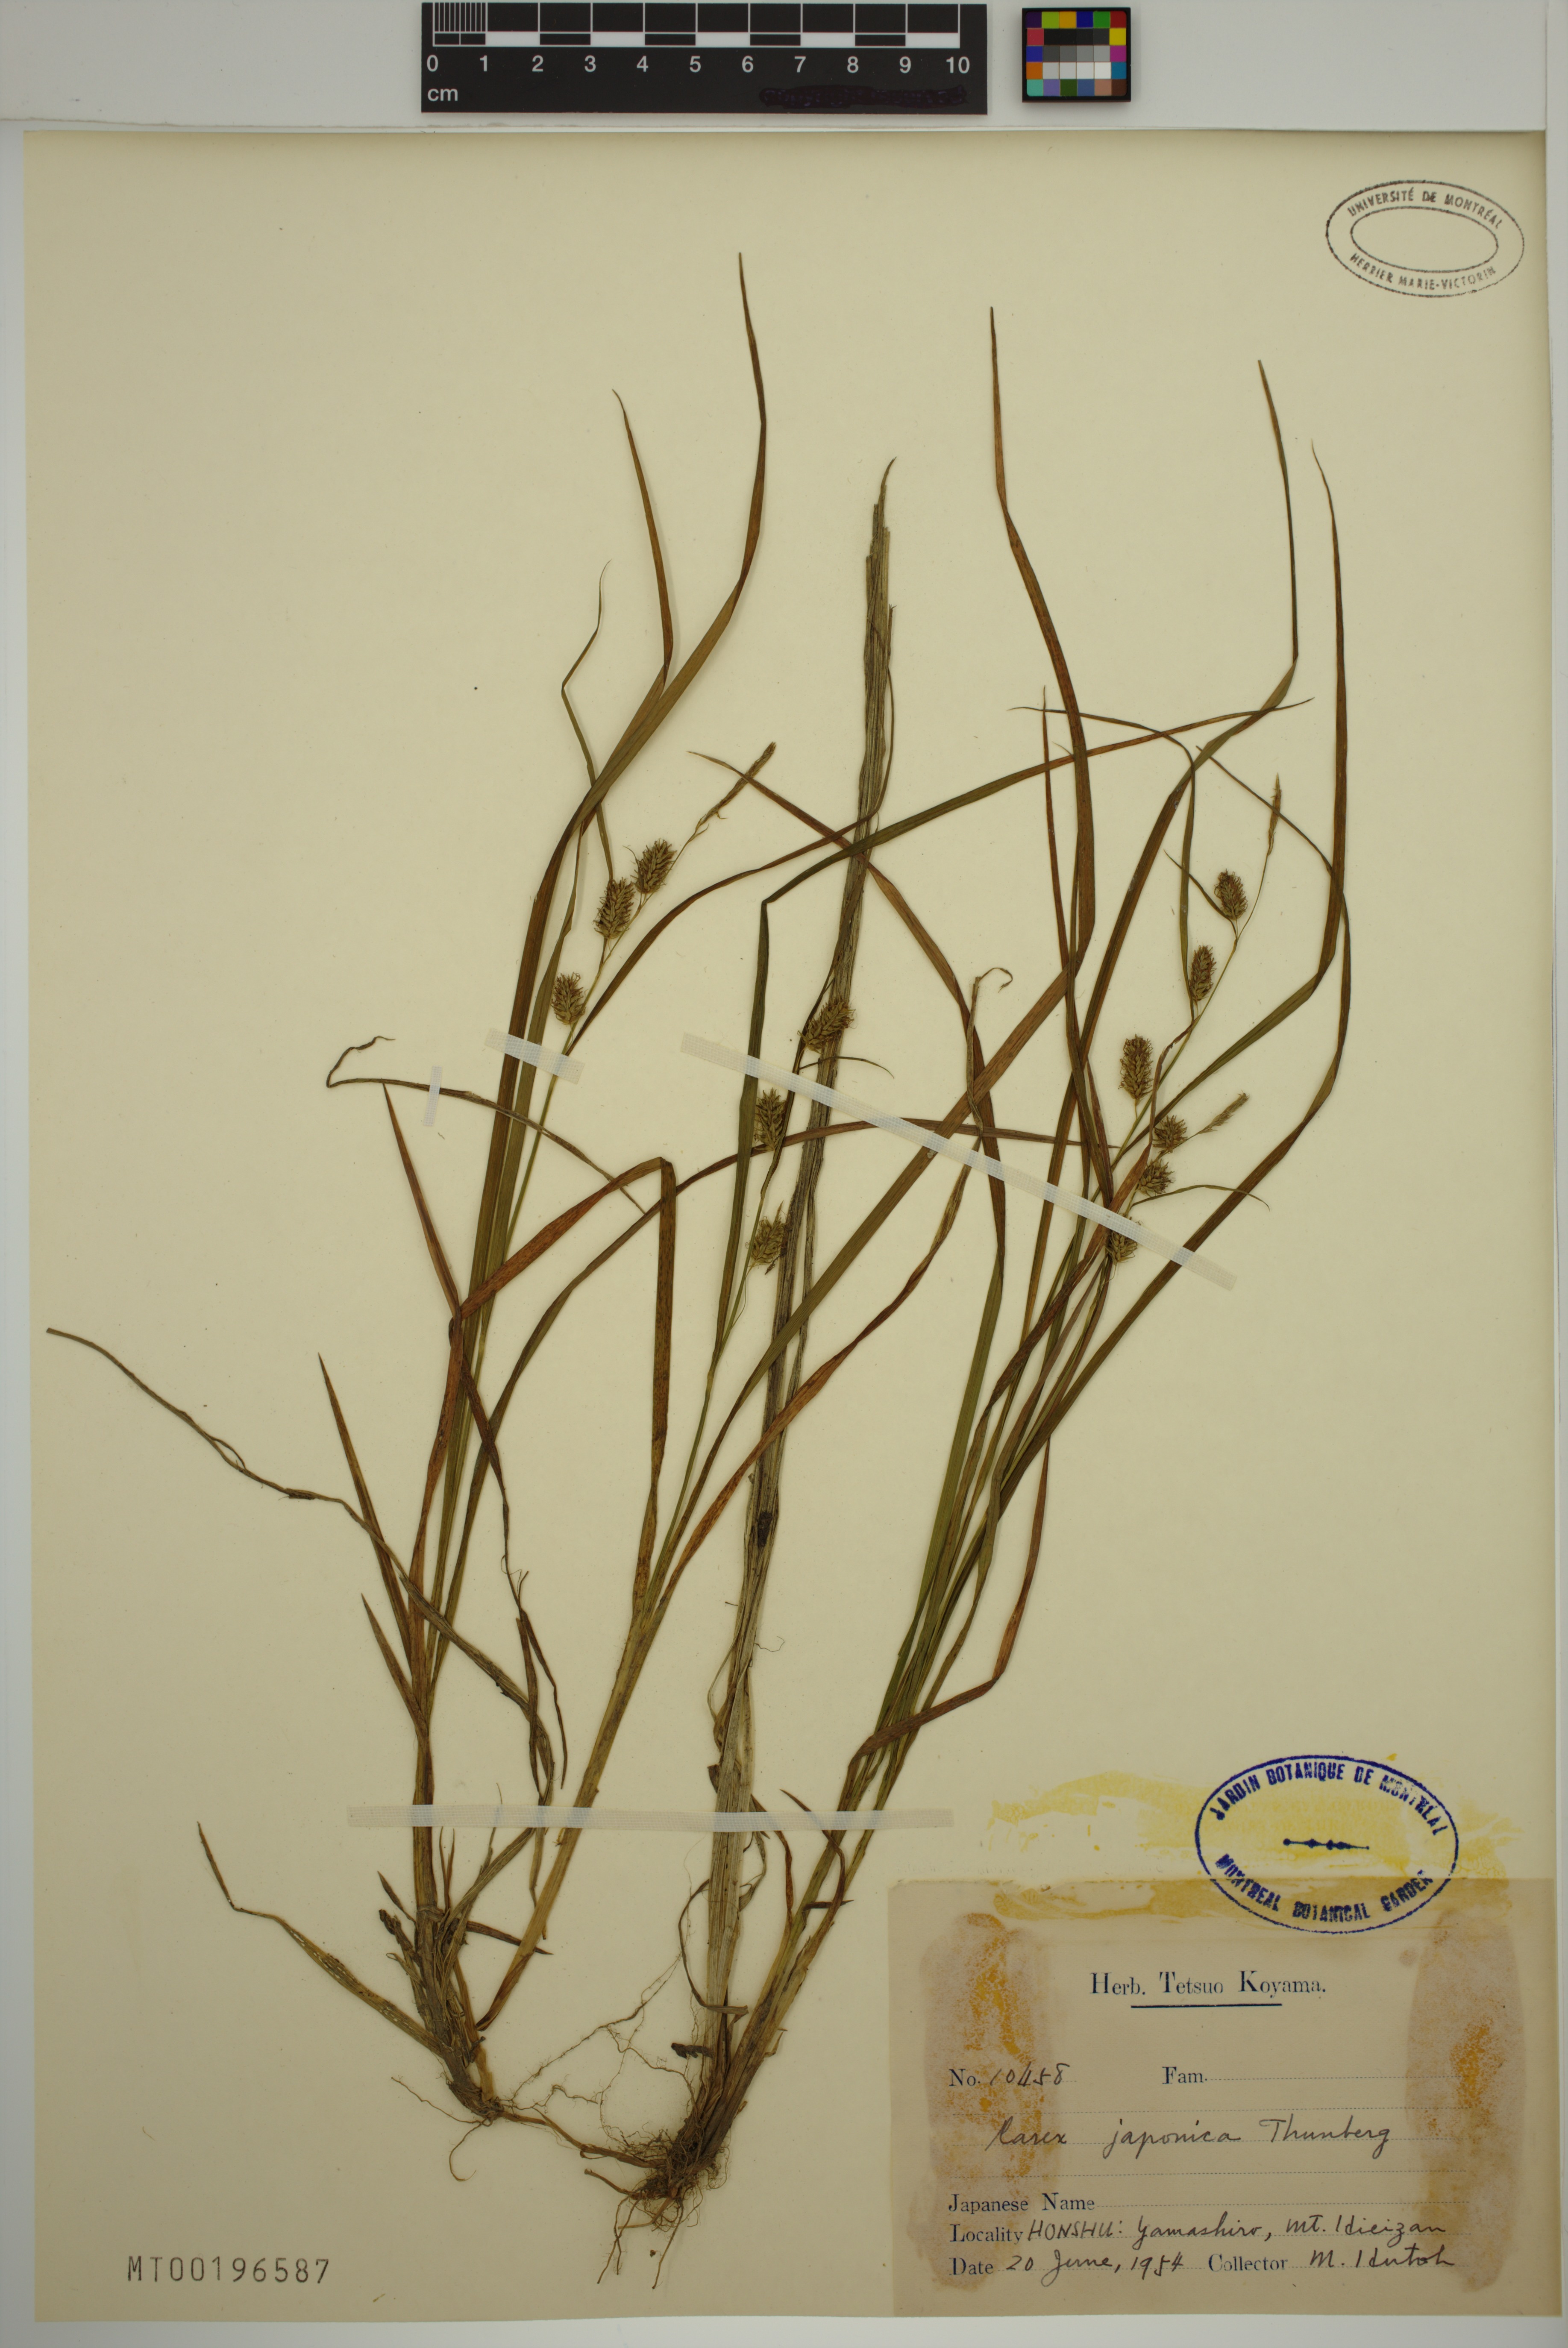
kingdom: Plantae
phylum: Tracheophyta
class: Liliopsida
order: Poales
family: Cyperaceae
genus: Carex
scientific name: Carex japonica
